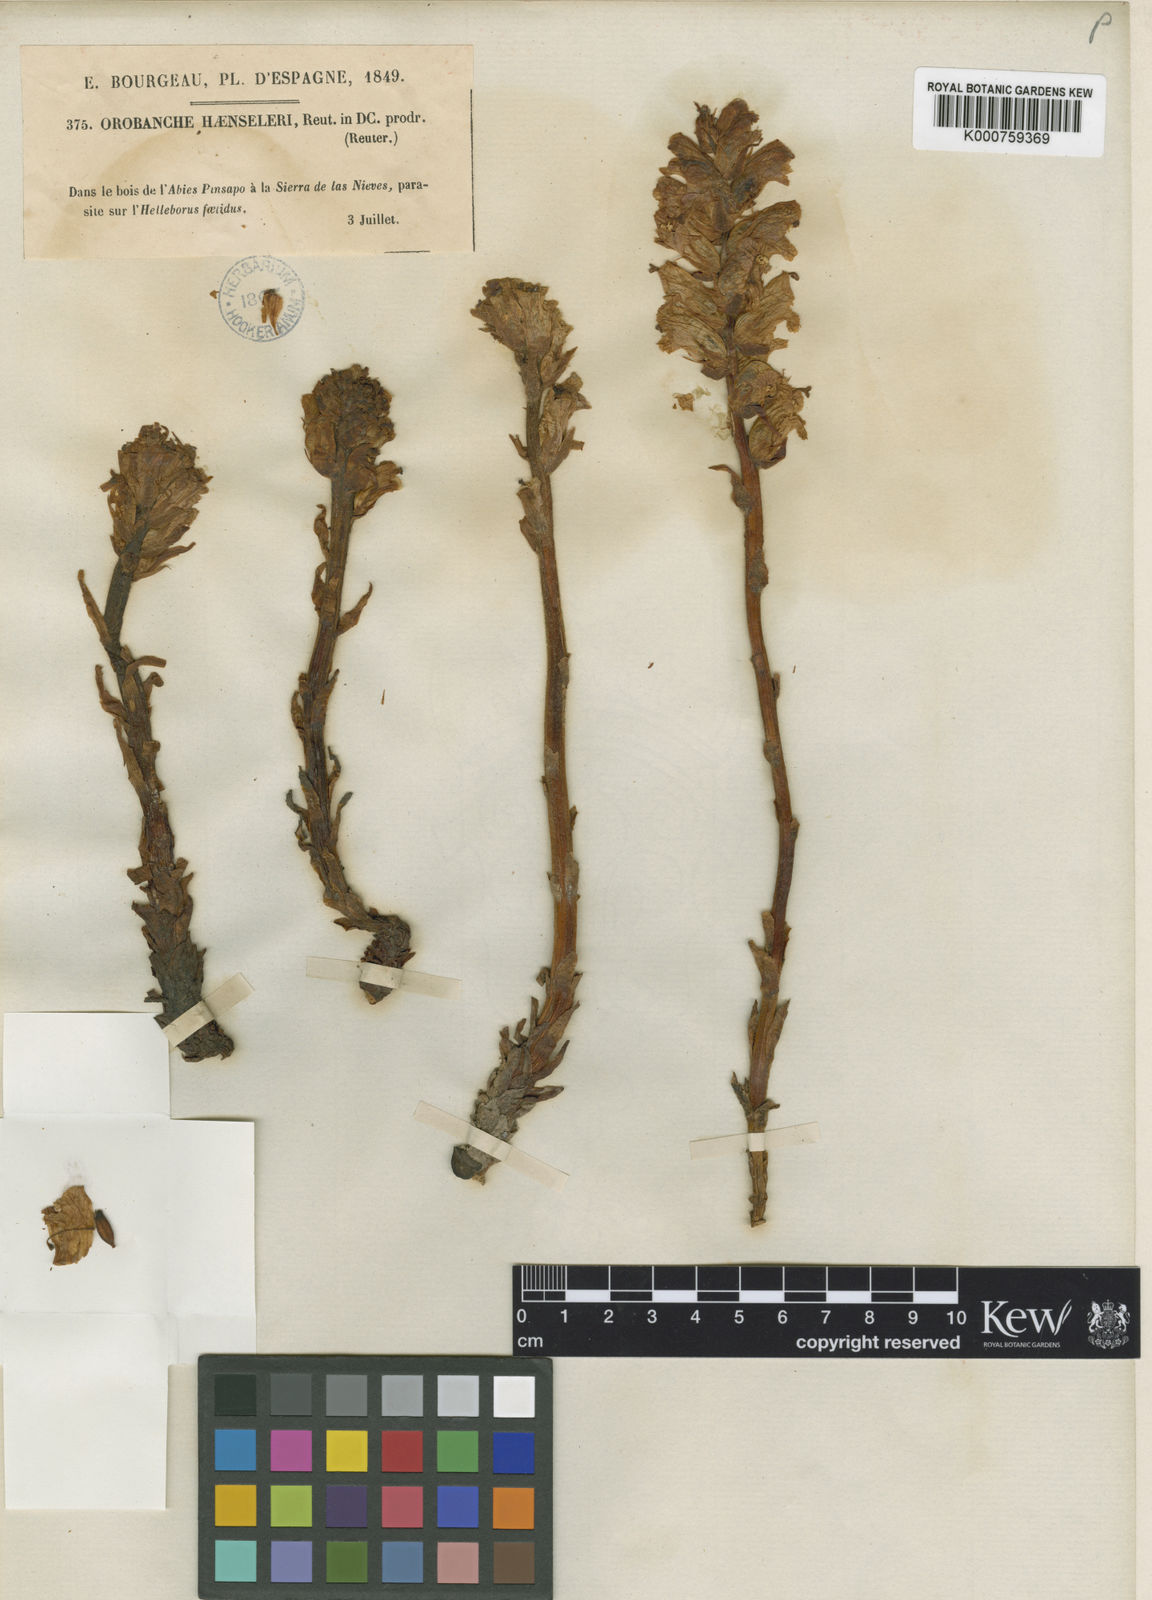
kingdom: Plantae
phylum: Tracheophyta
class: Magnoliopsida
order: Lamiales
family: Orobanchaceae
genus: Orobanche
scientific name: Orobanche haenseleri
